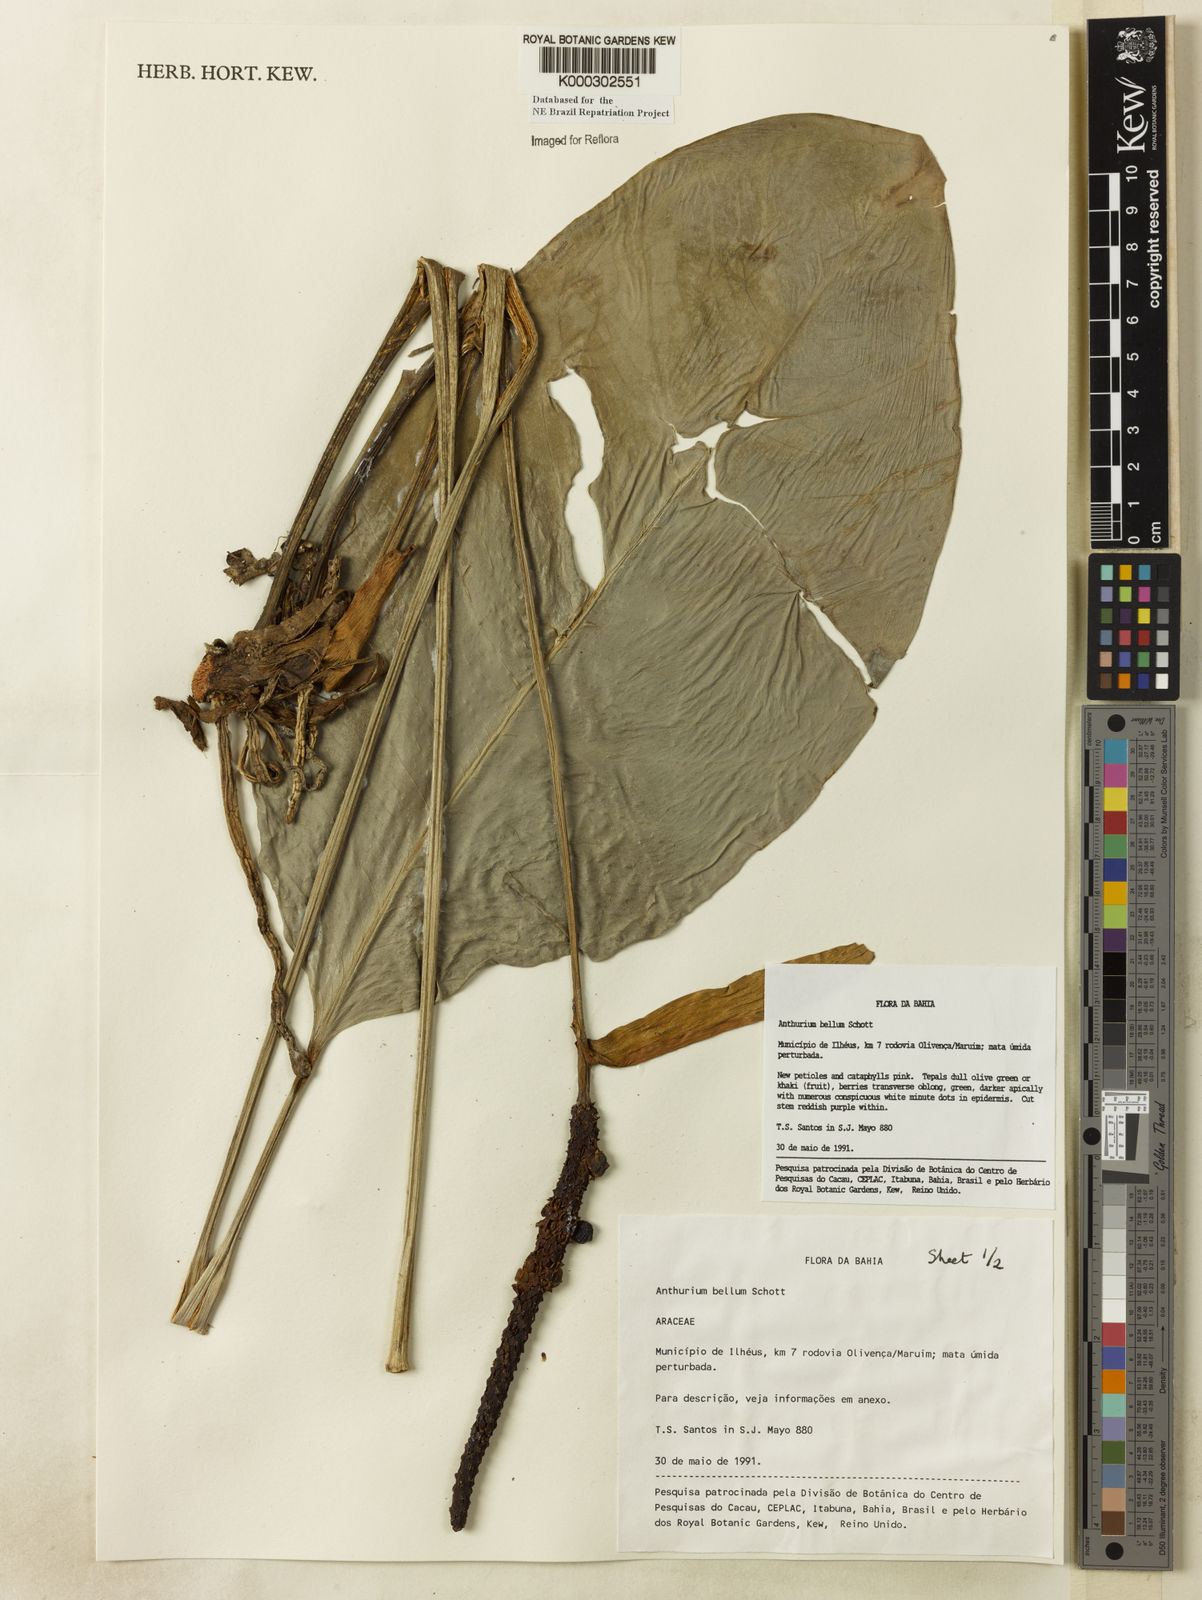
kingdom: Plantae
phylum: Tracheophyta
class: Liliopsida
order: Alismatales
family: Araceae
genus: Anthurium
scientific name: Anthurium bellum
